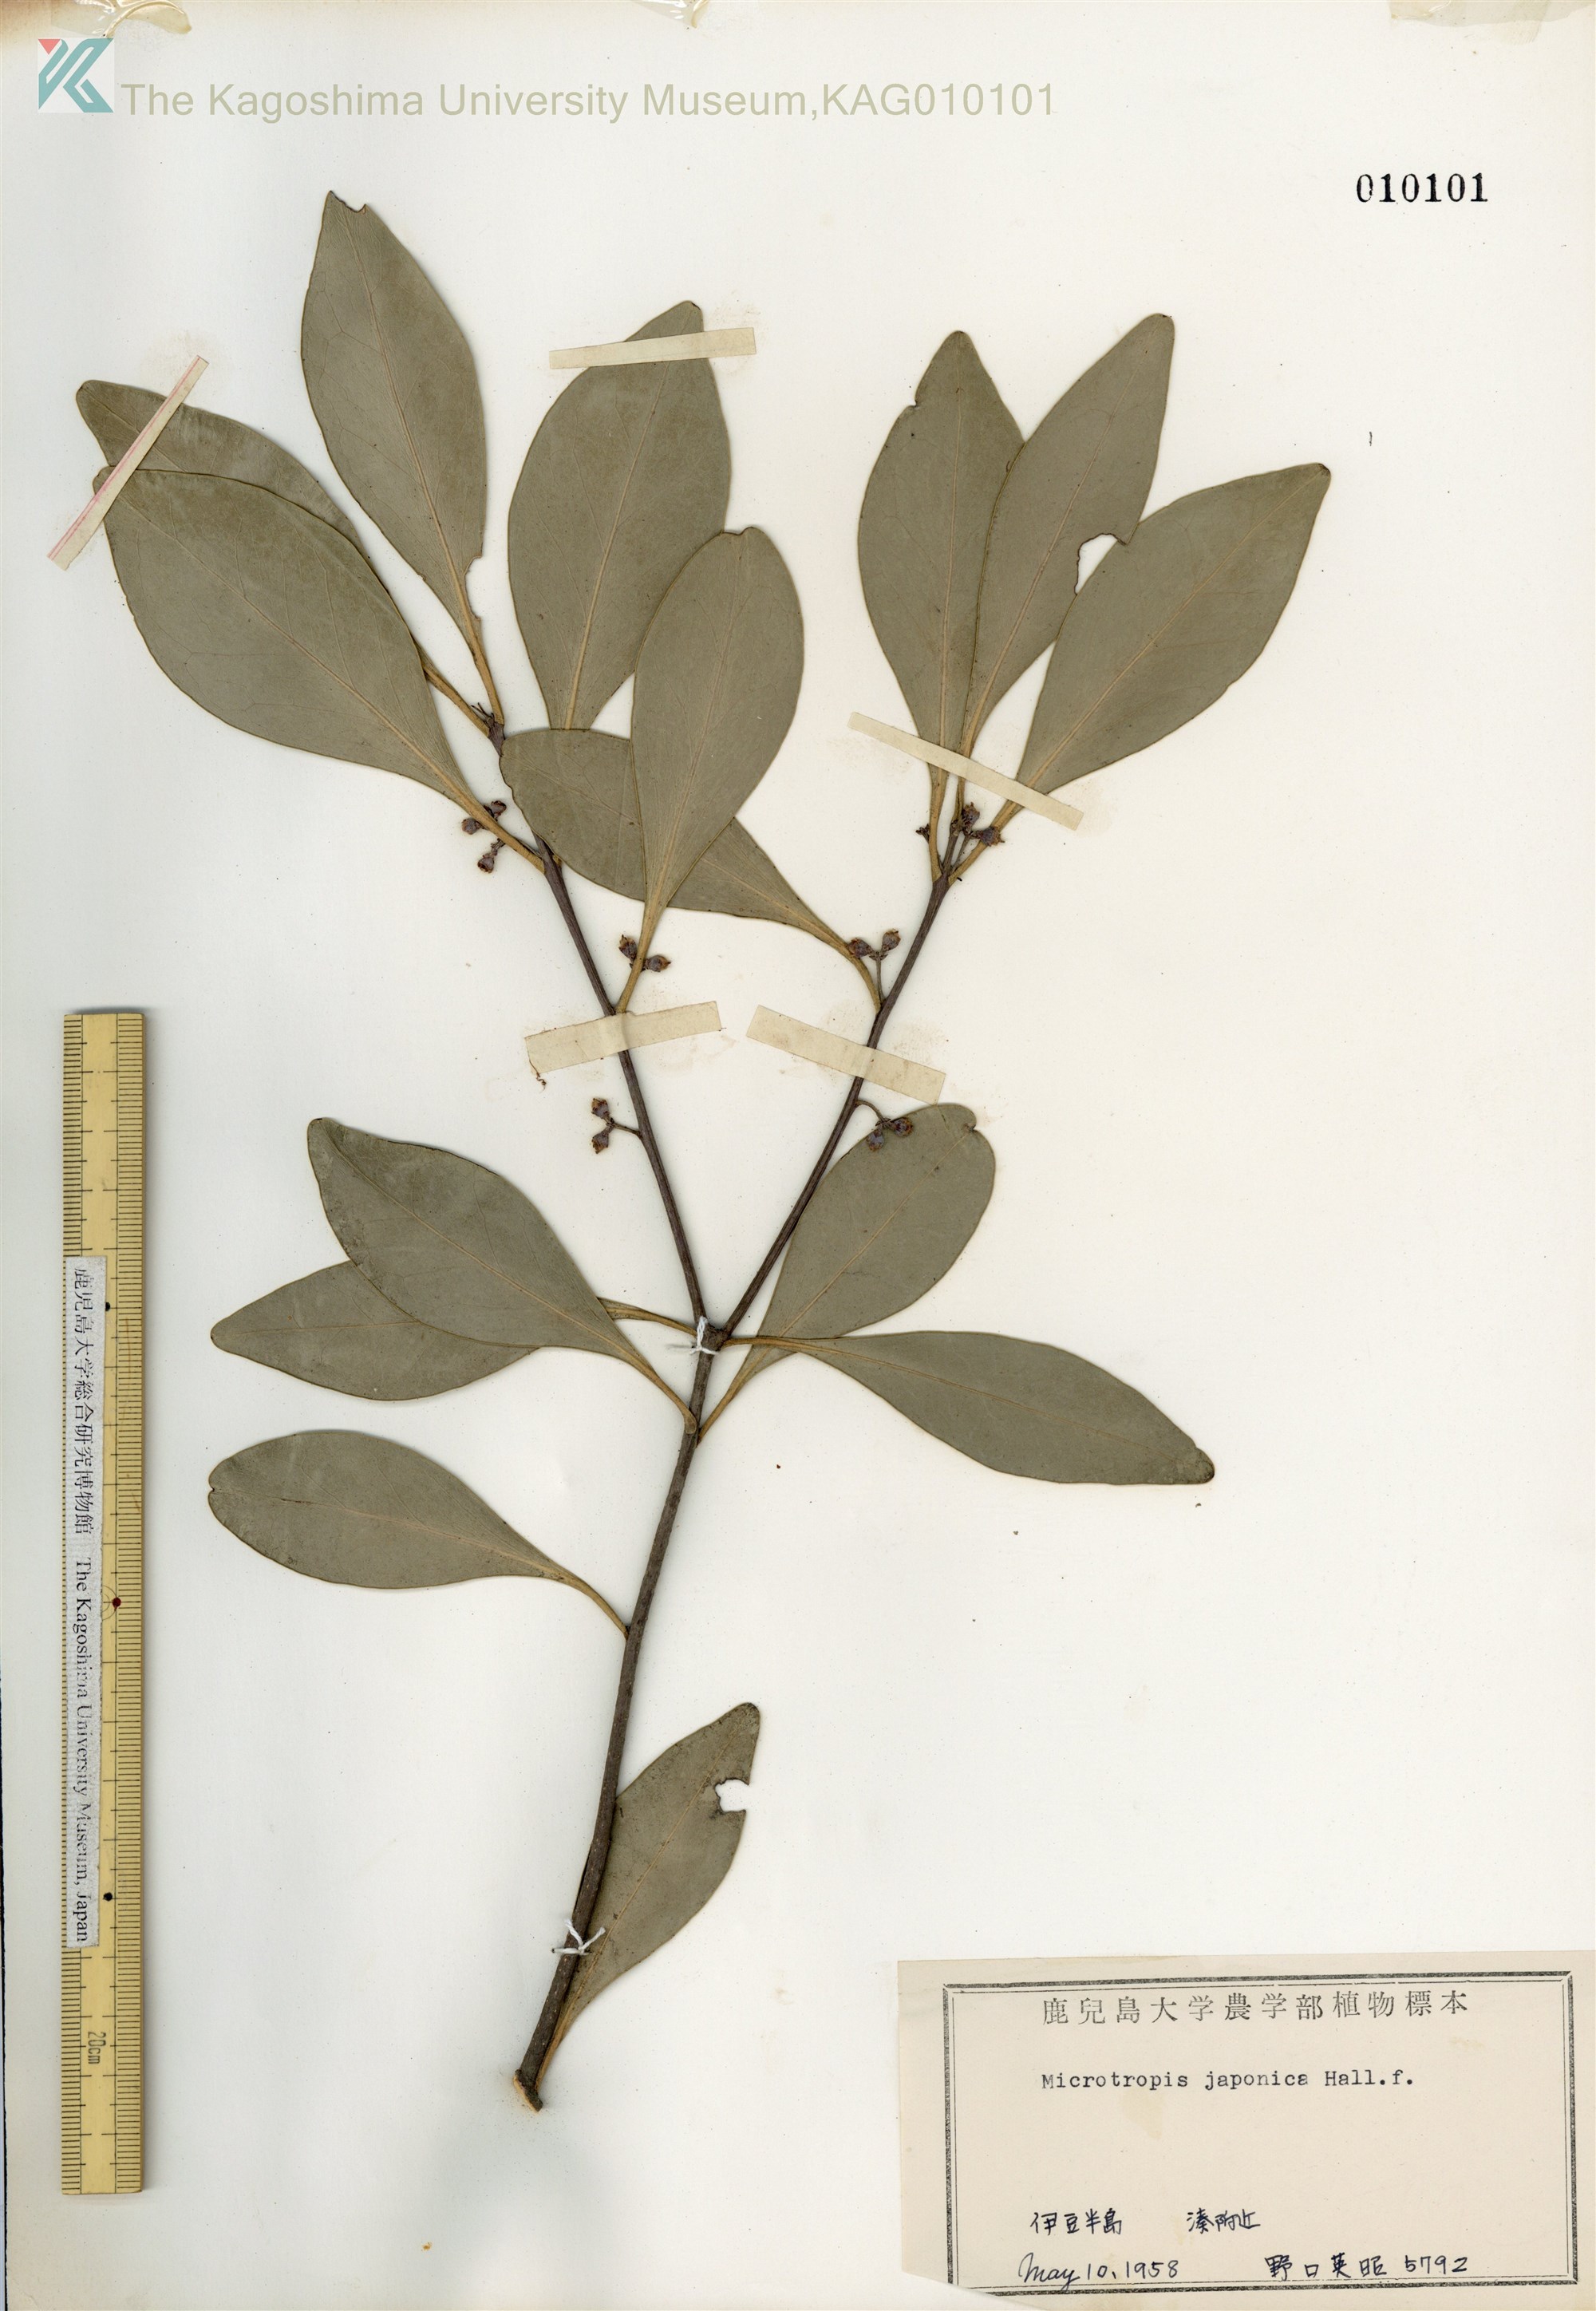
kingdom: Plantae
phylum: Tracheophyta
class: Magnoliopsida
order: Celastrales
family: Celastraceae
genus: Microtropis
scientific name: Microtropis japonica
